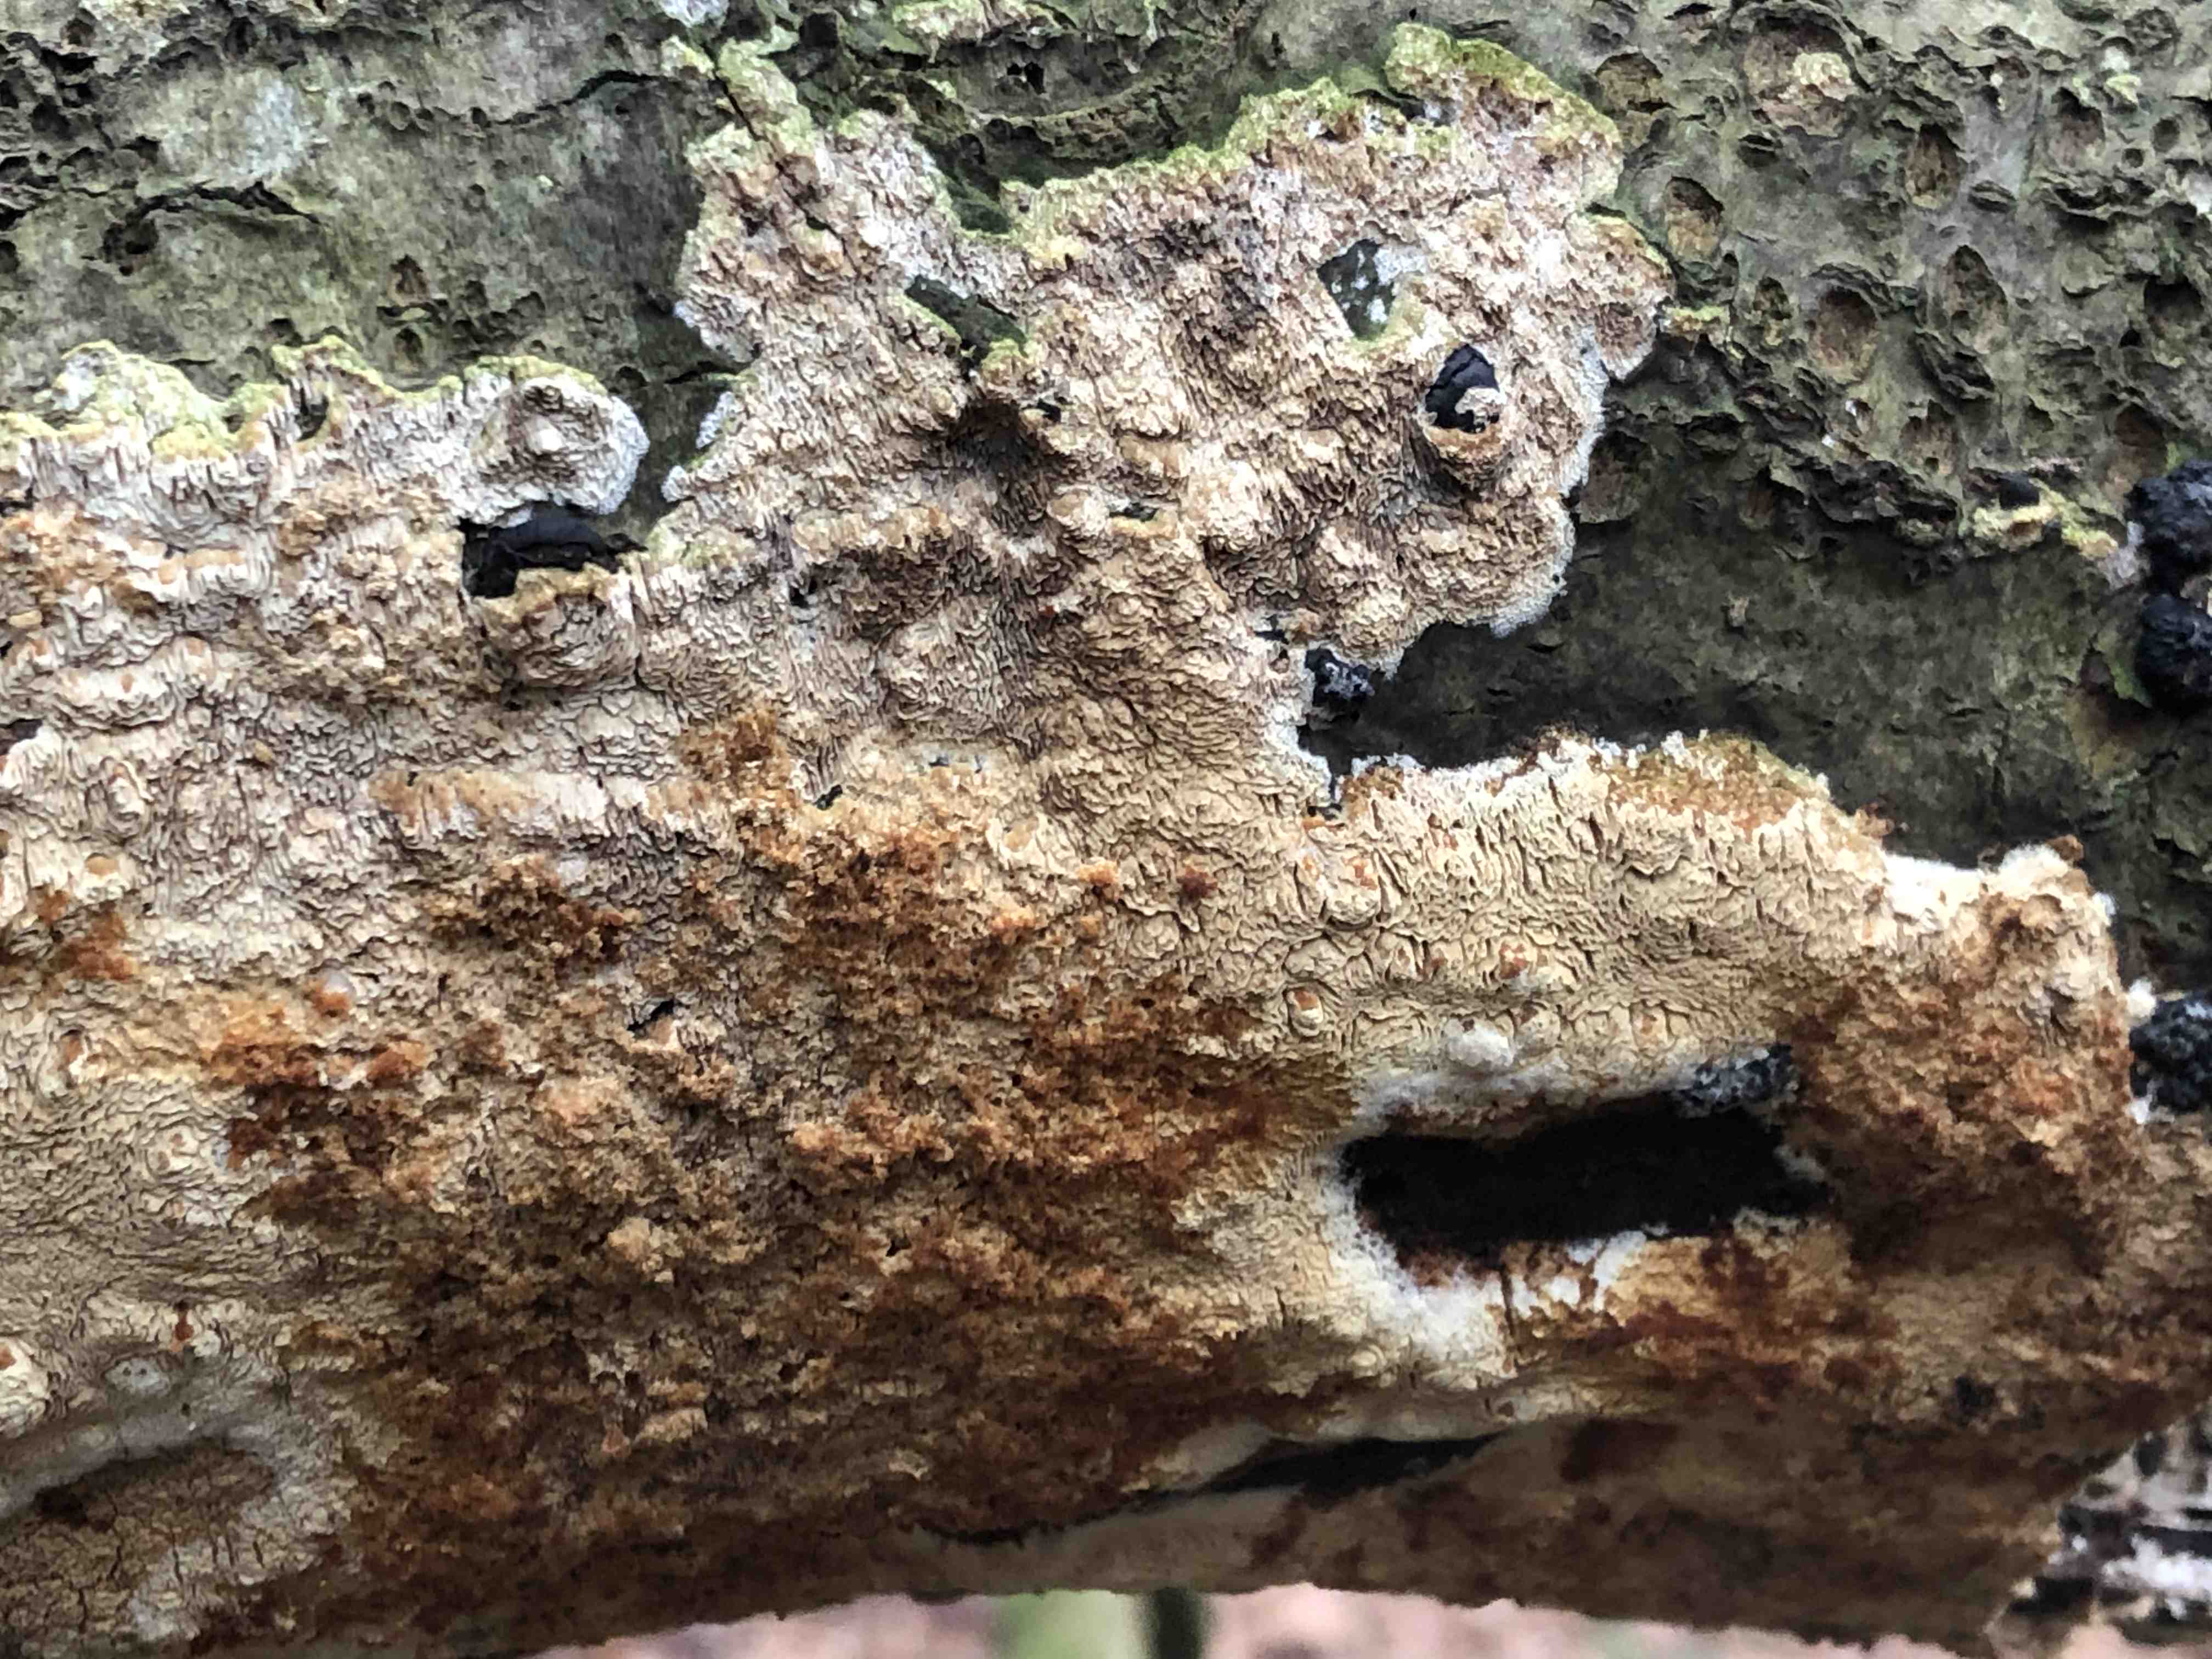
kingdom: Fungi
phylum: Basidiomycota
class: Agaricomycetes
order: Corticiales
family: Corticiaceae
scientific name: Corticiaceae
